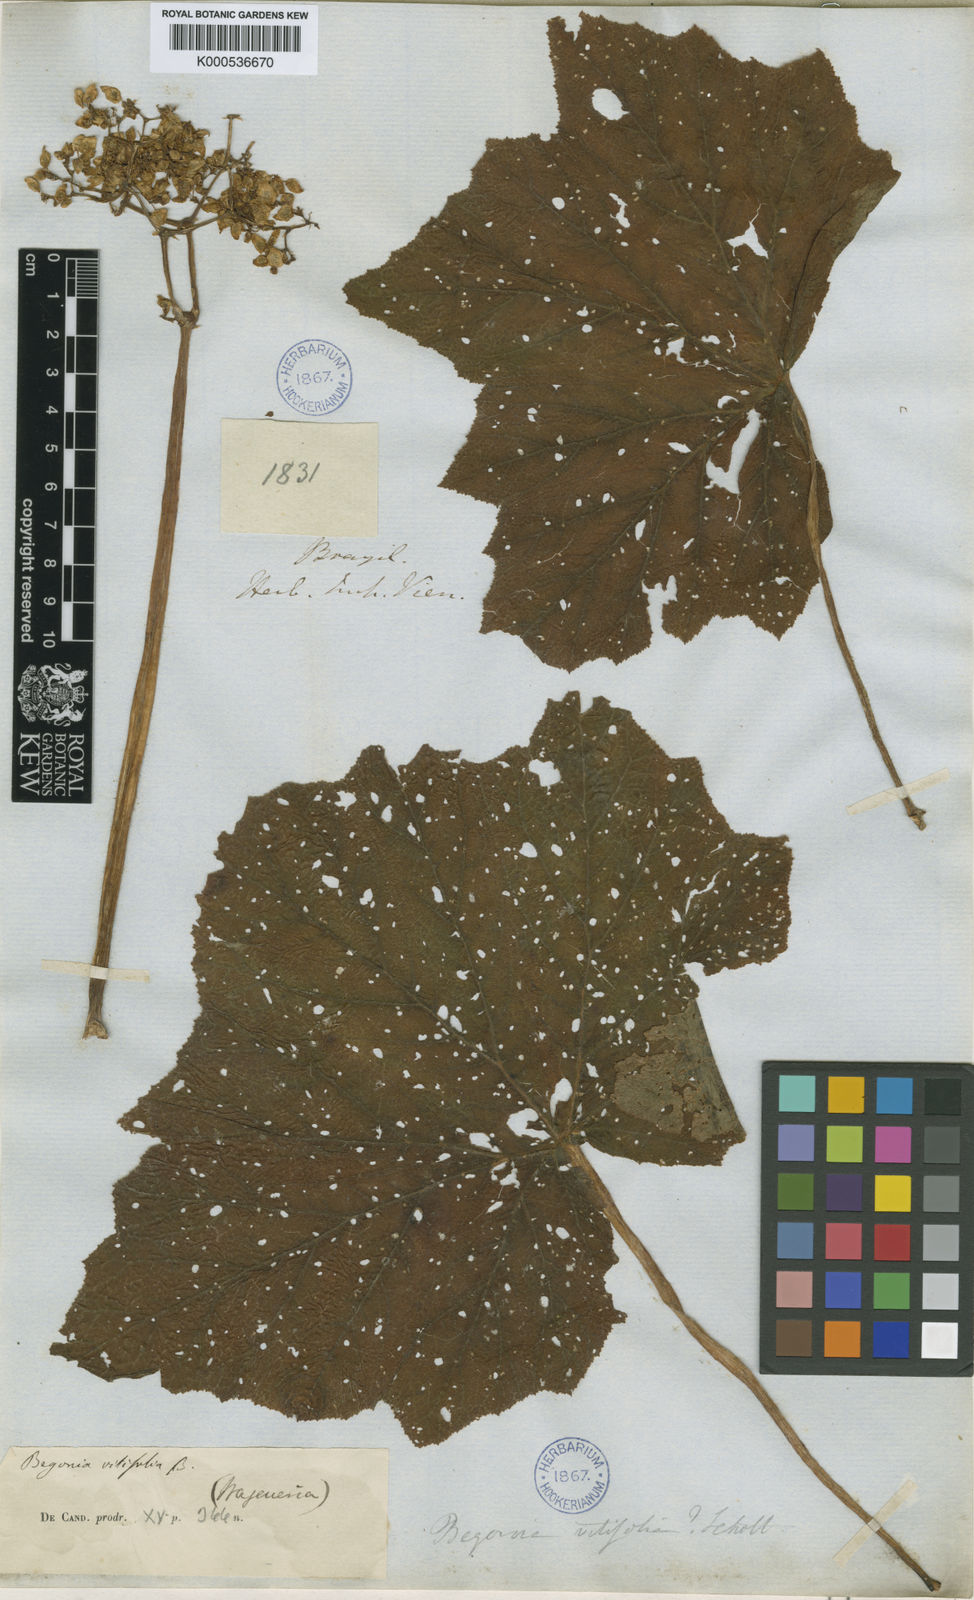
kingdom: Plantae
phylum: Tracheophyta
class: Magnoliopsida
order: Cucurbitales
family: Begoniaceae
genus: Begonia
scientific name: Begonia reniformis
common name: Grapeleaf begonia
